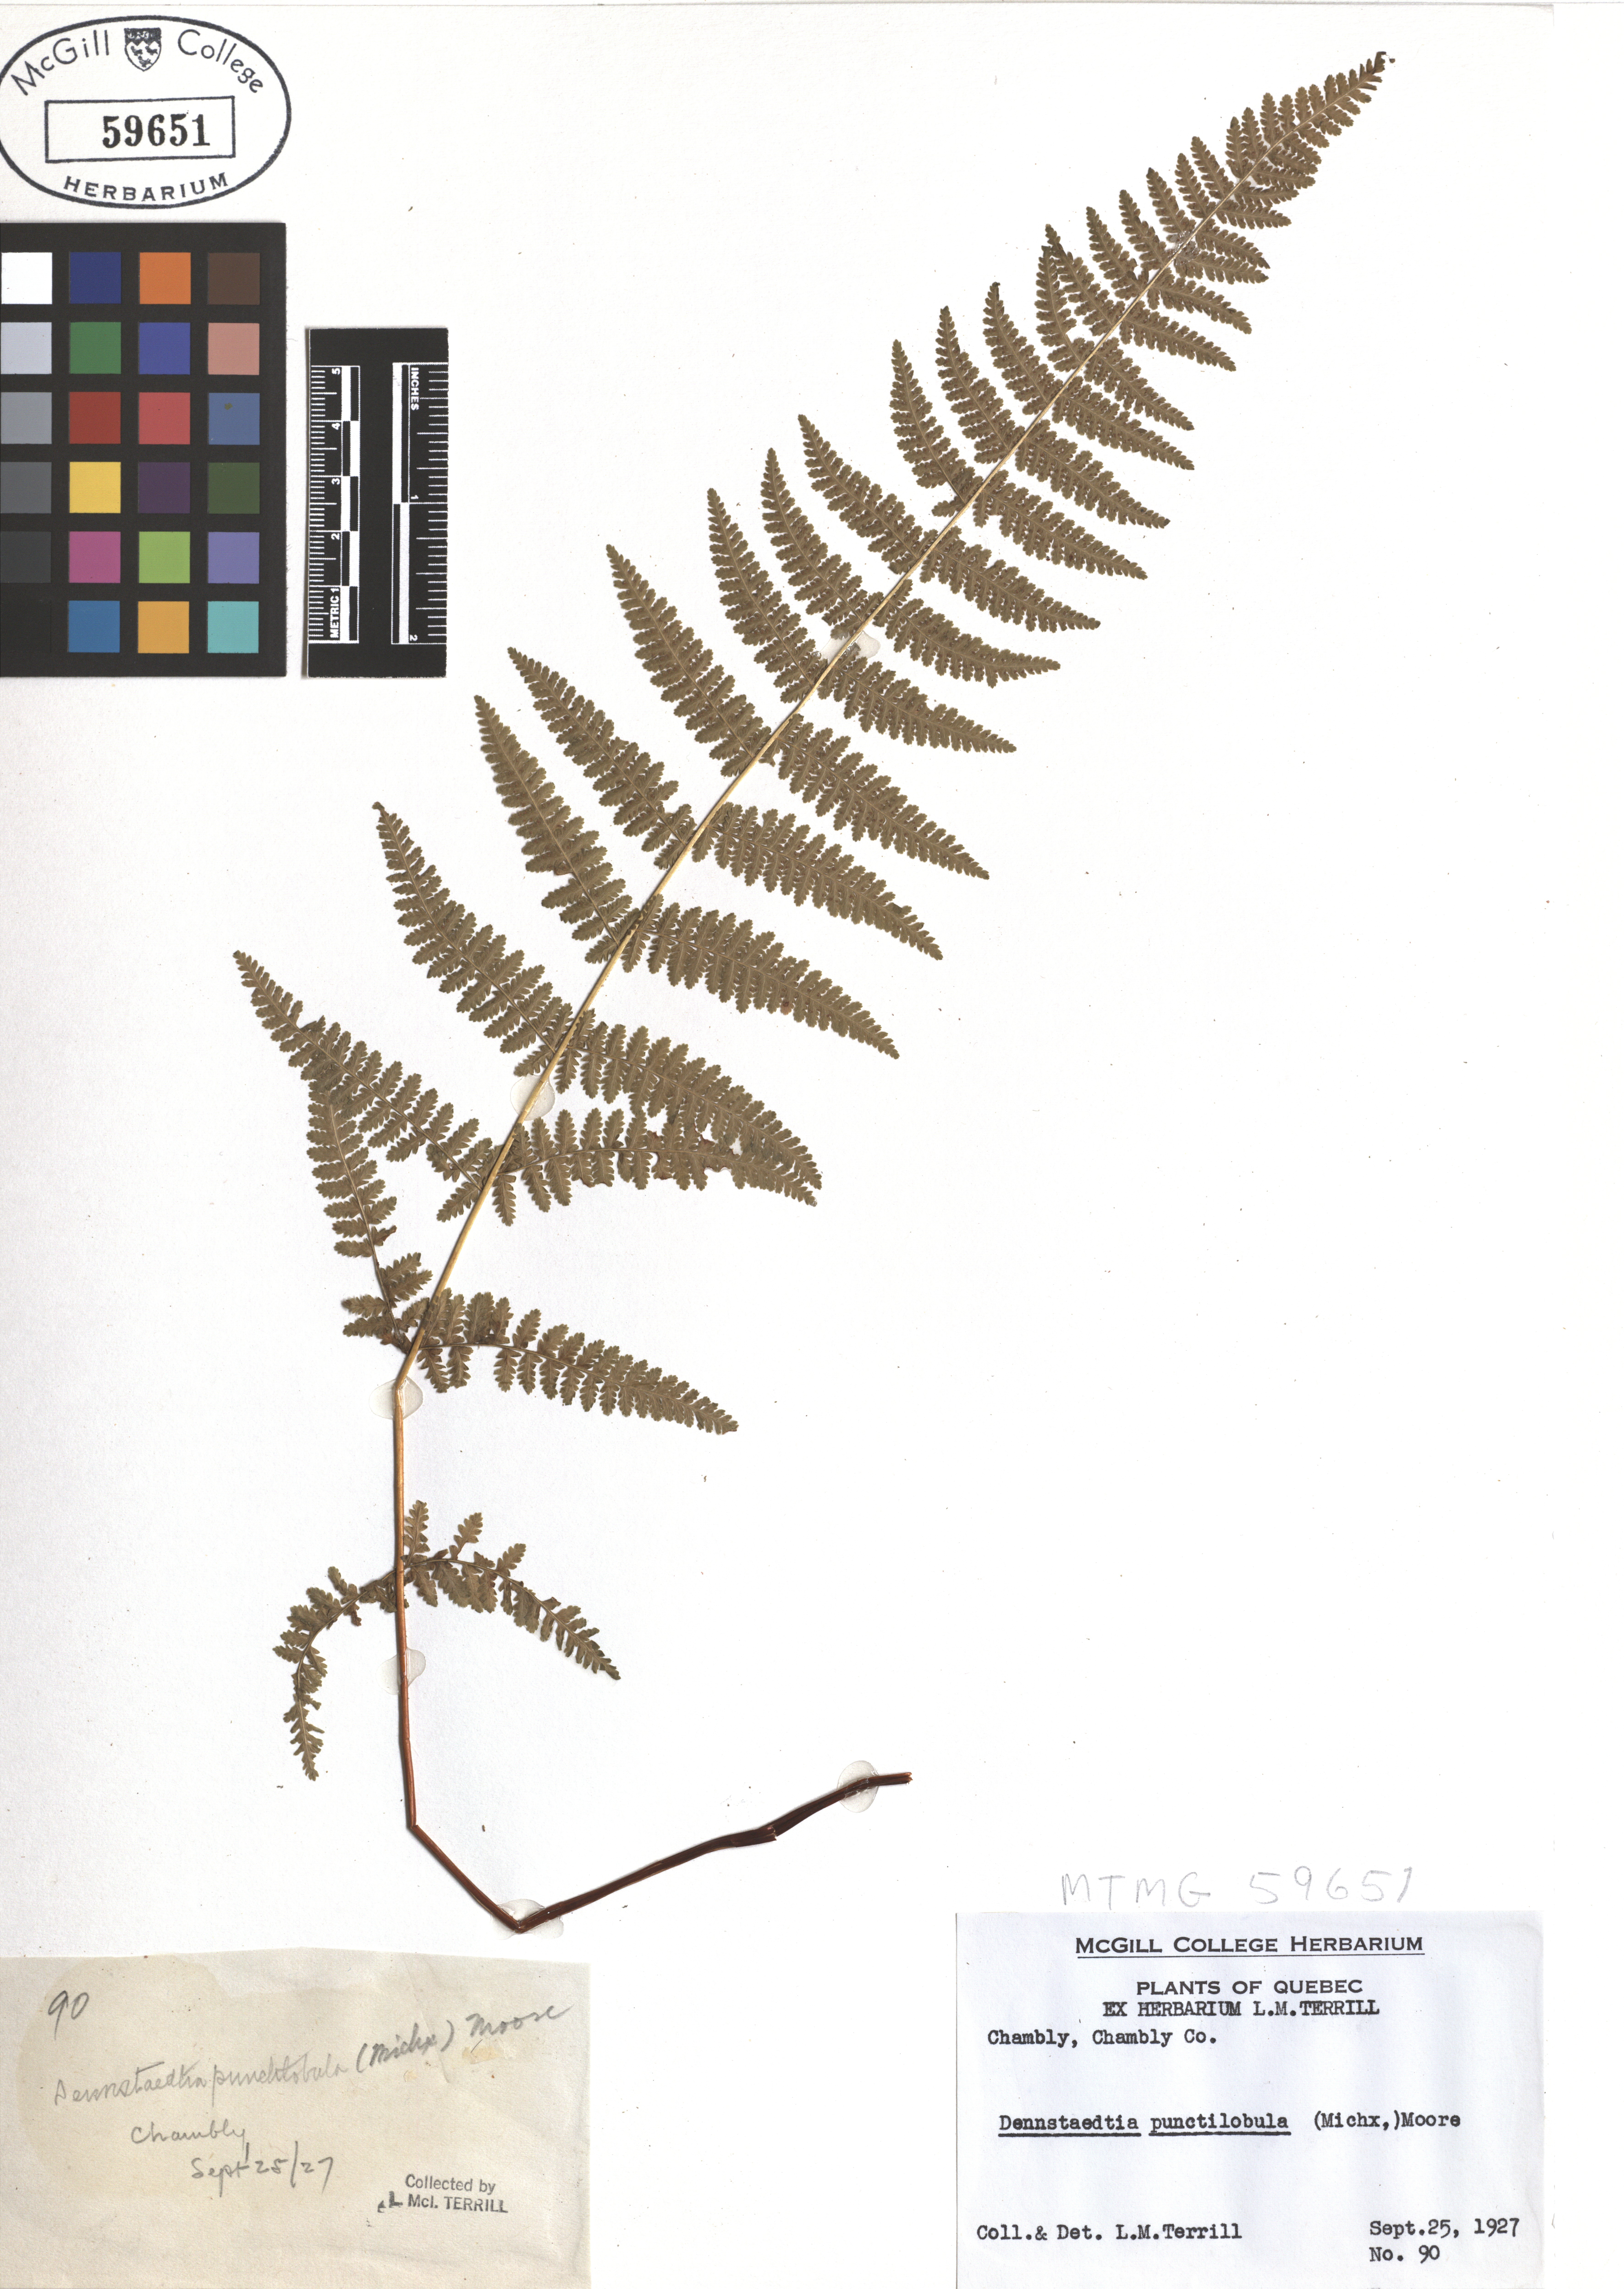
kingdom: Plantae
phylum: Tracheophyta
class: Polypodiopsida
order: Polypodiales
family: Dennstaedtiaceae
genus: Sitobolium
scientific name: Sitobolium punctilobum
